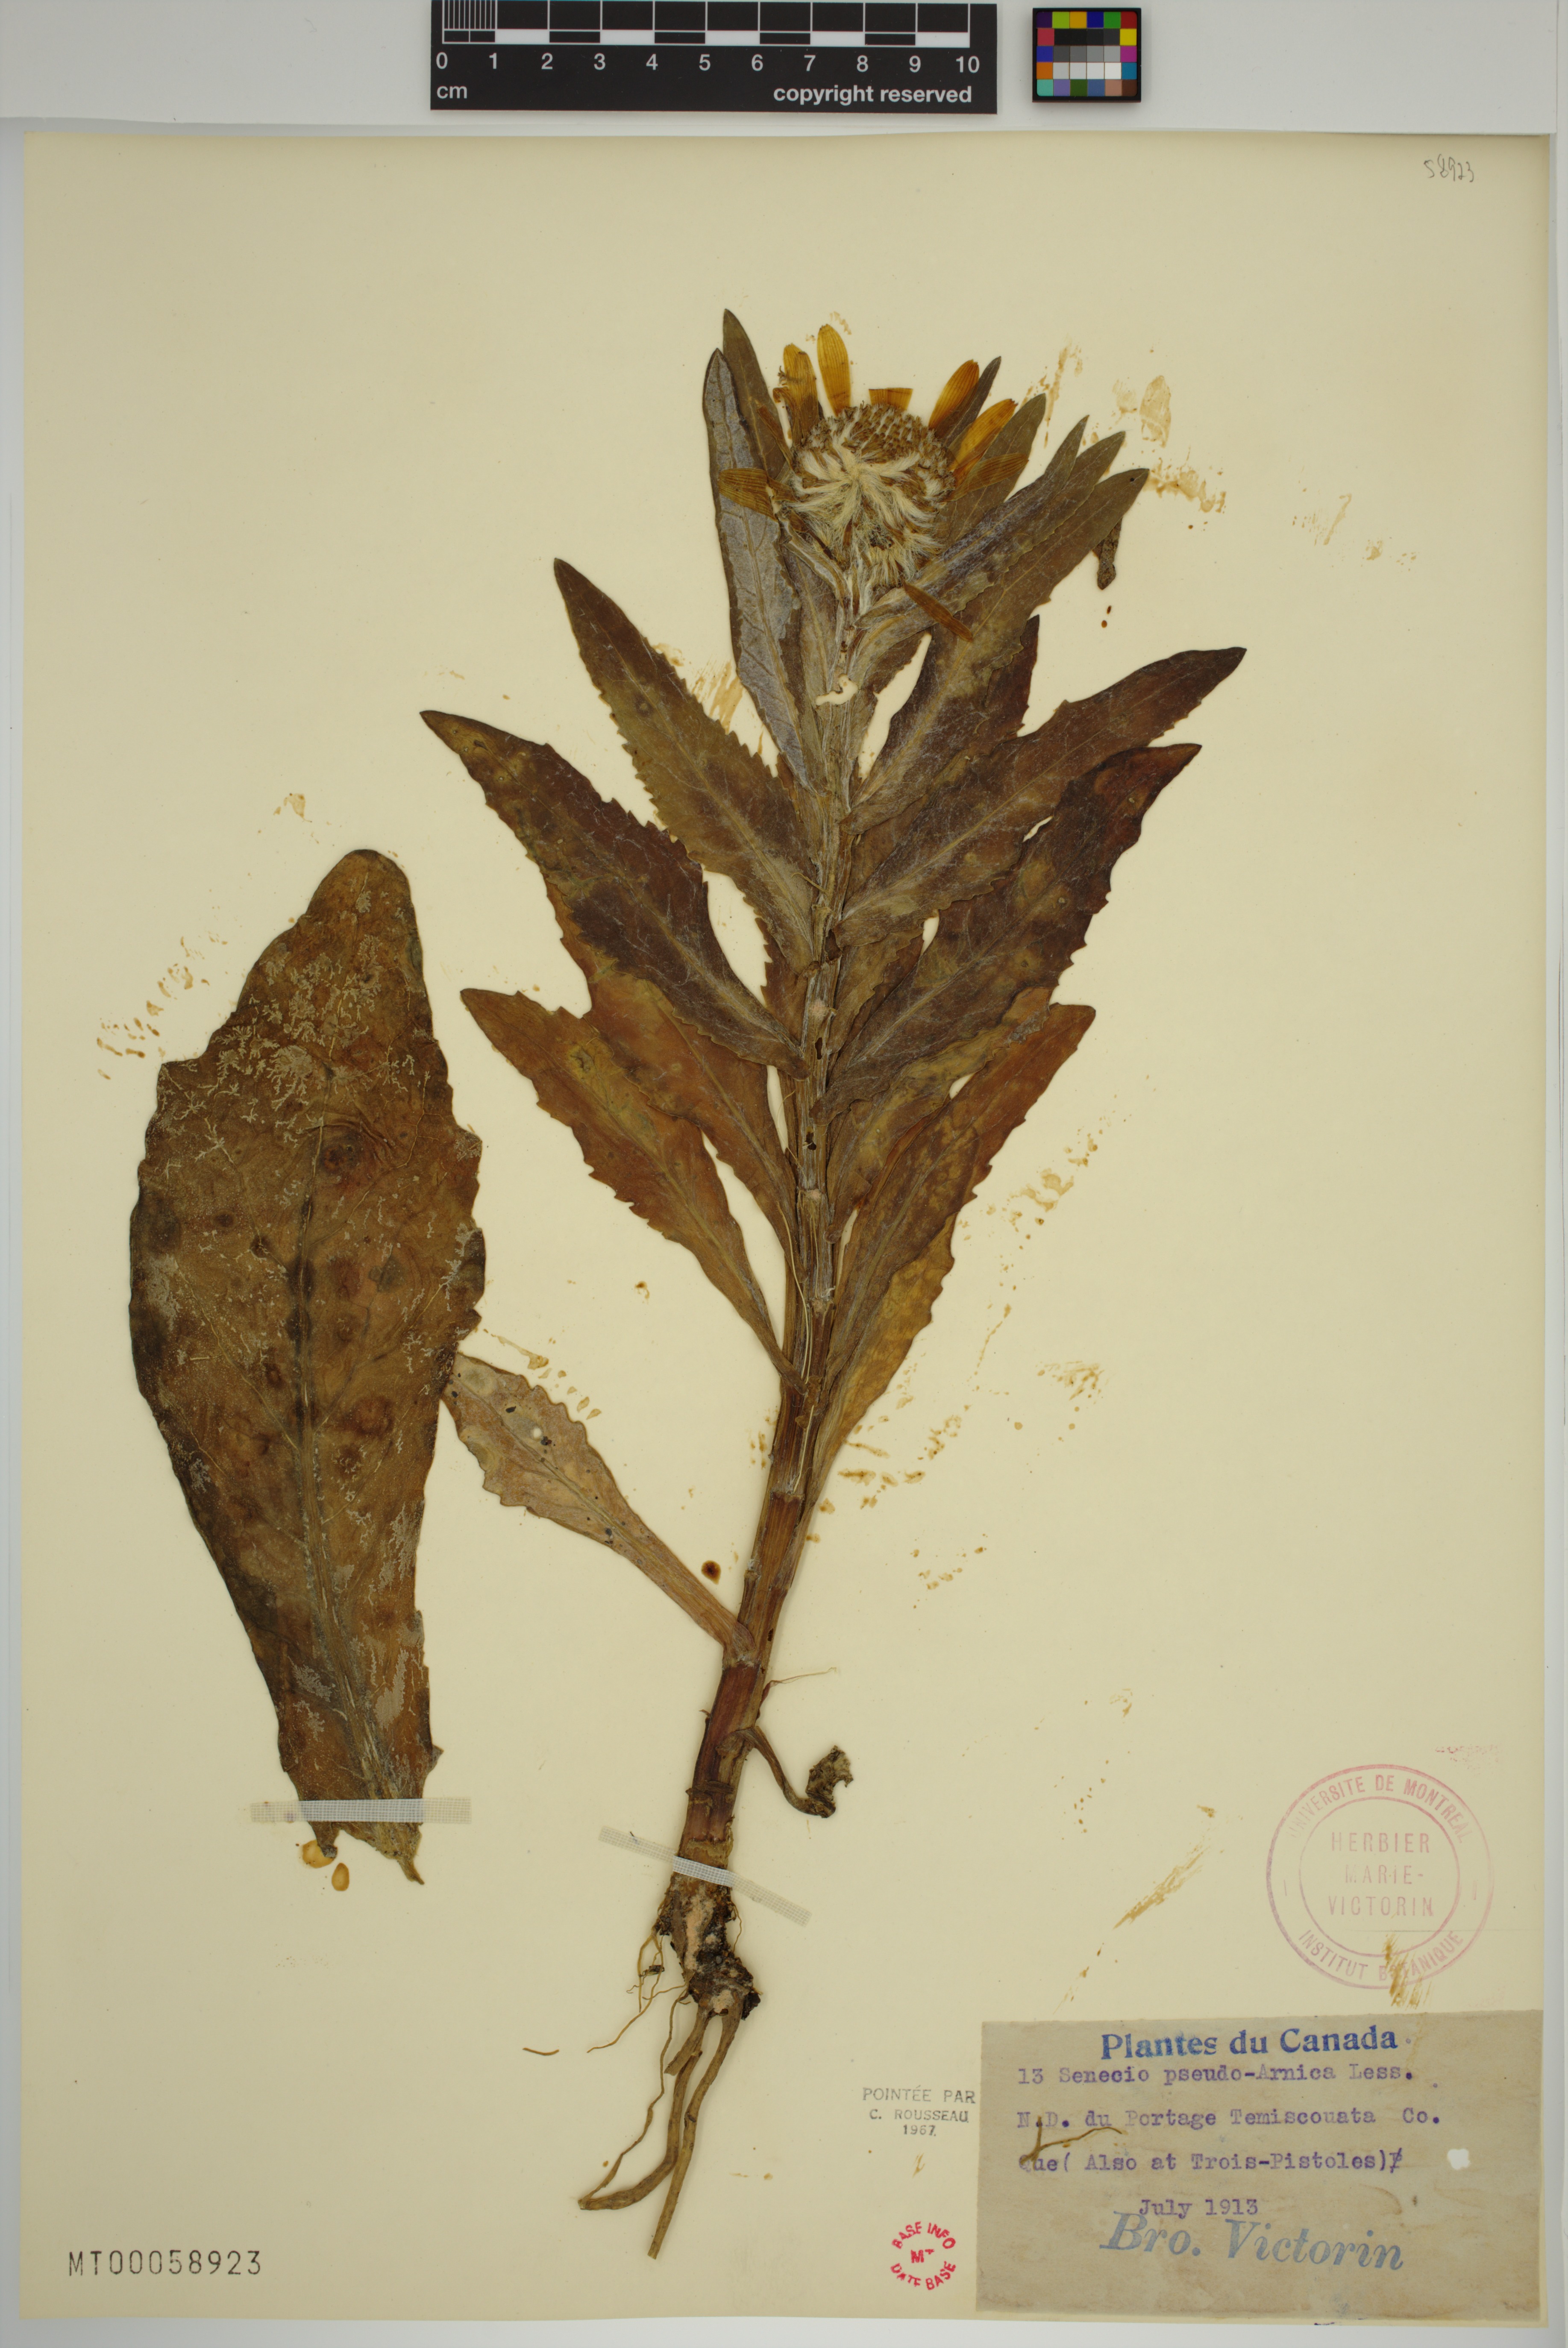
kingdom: Plantae
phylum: Tracheophyta
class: Magnoliopsida
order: Asterales
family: Asteraceae
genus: Jacobaea
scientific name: Jacobaea pseudoarnica
